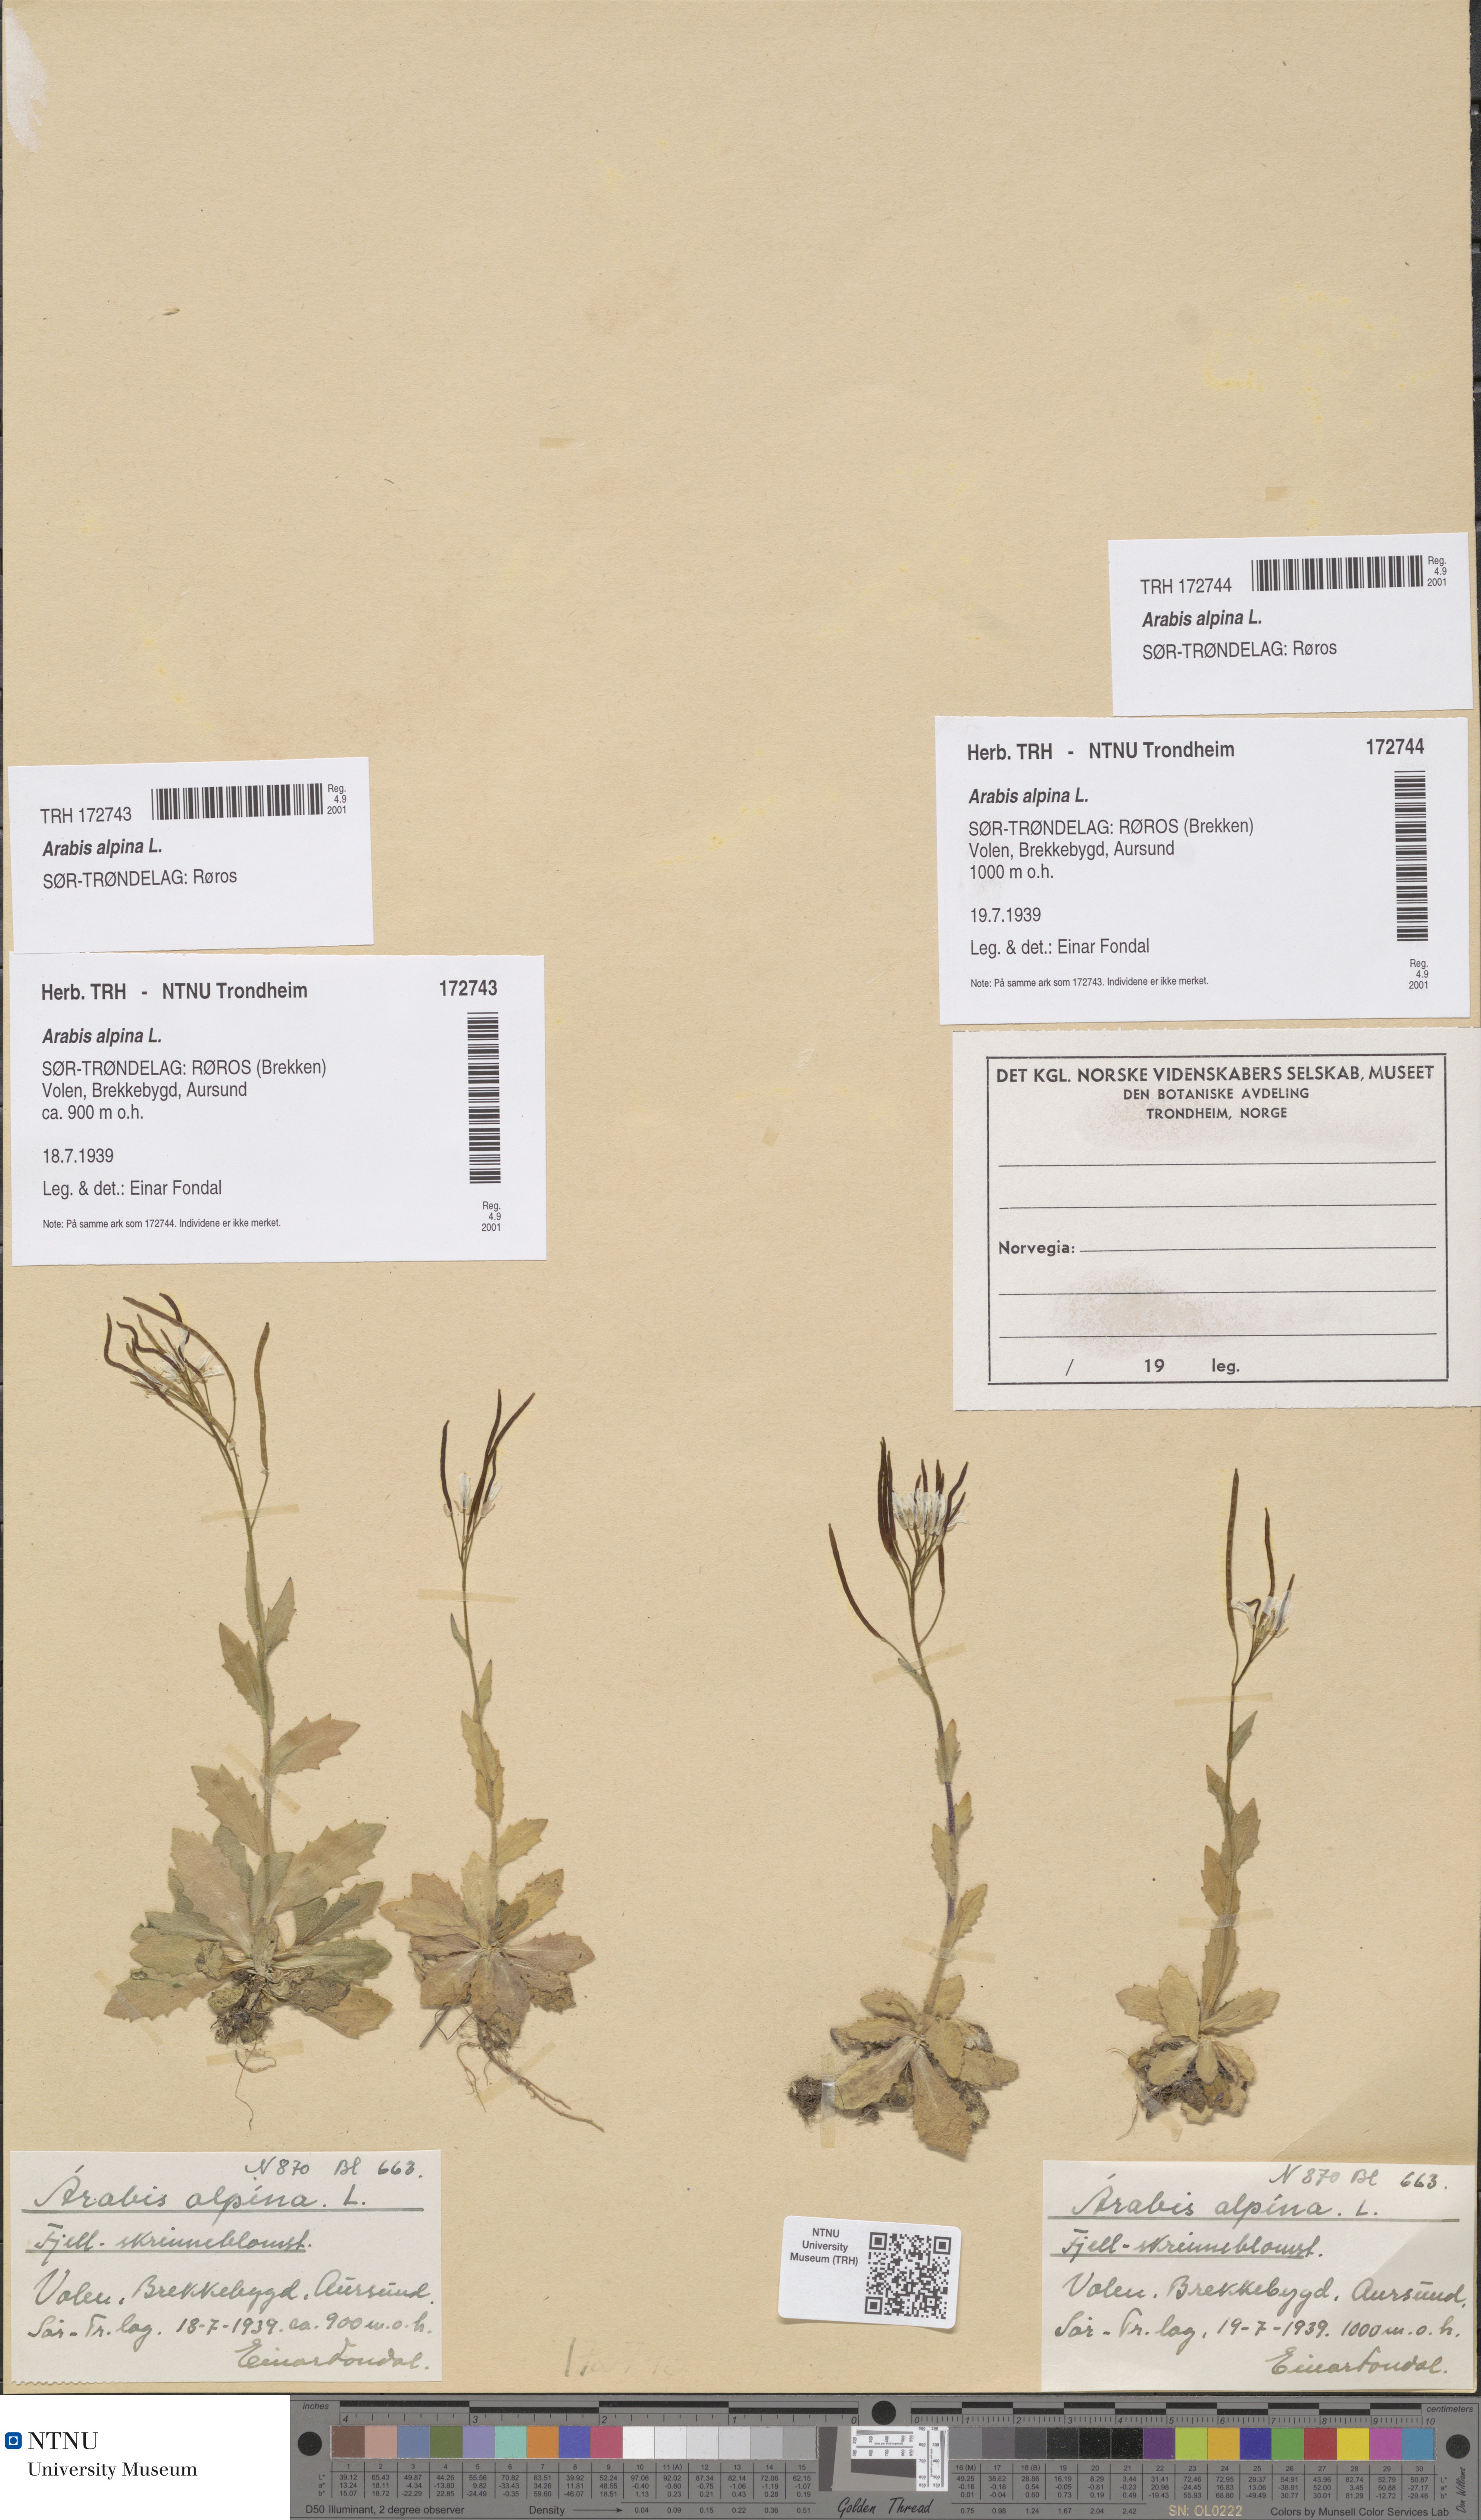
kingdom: Plantae
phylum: Tracheophyta
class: Magnoliopsida
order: Brassicales
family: Brassicaceae
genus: Arabis
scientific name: Arabis alpina
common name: Alpine rock-cress
